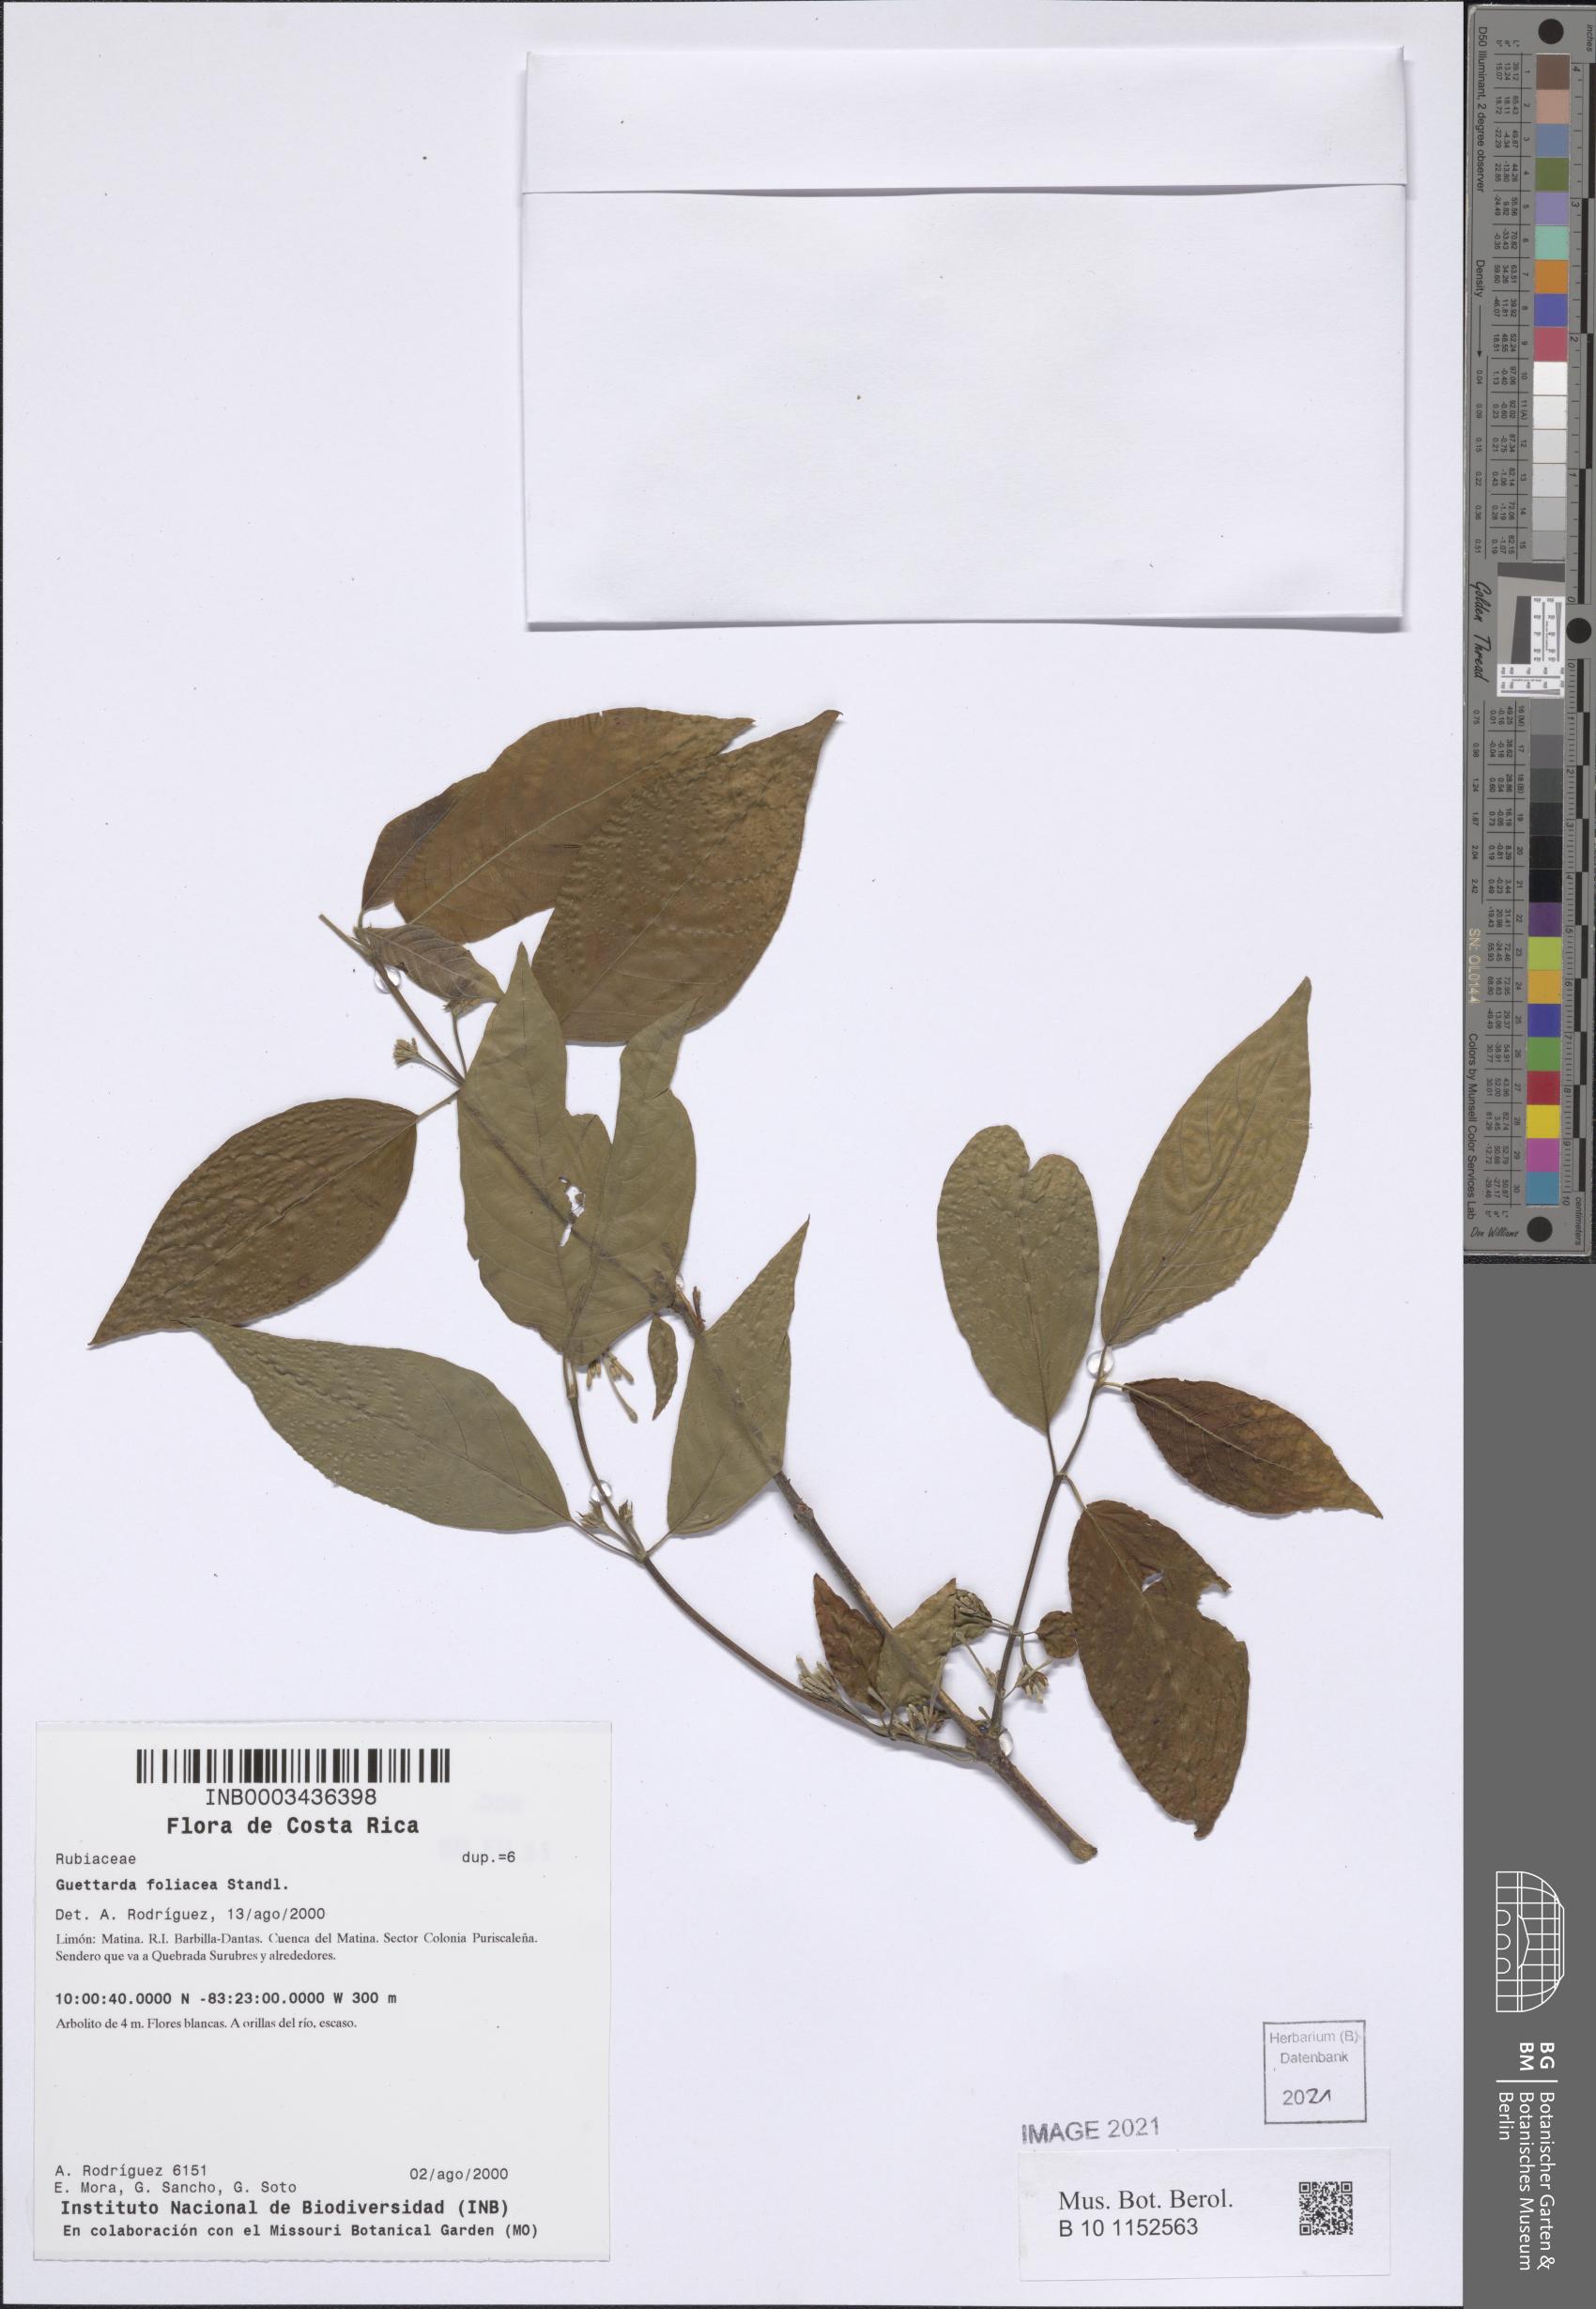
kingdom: Plantae
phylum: Tracheophyta
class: Magnoliopsida
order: Gentianales
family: Rubiaceae
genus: Guettarda
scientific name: Guettarda foliacea
